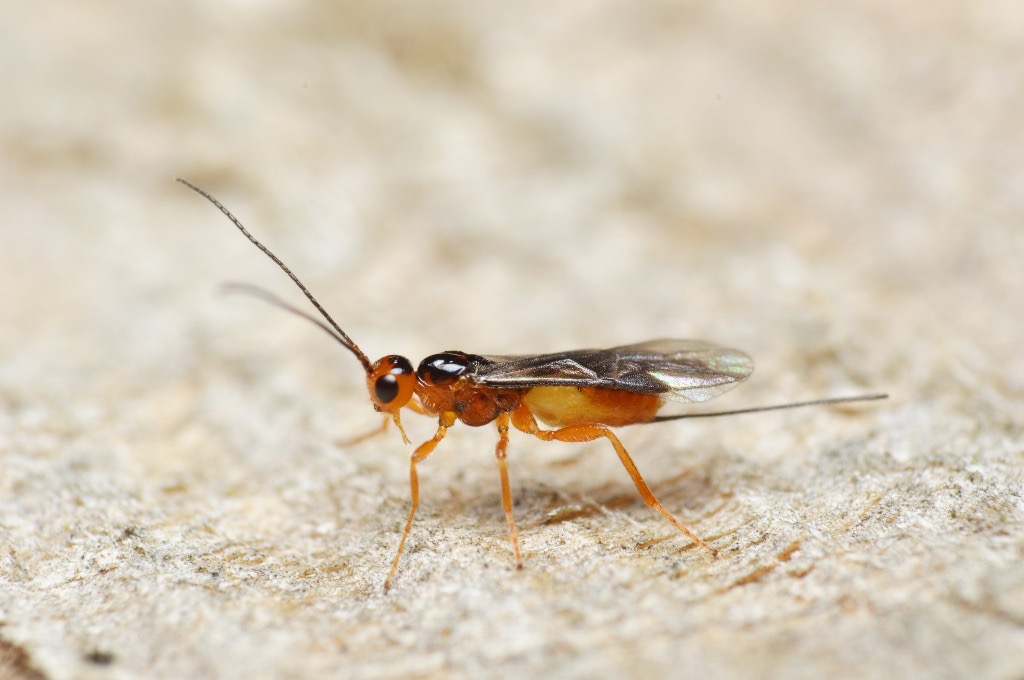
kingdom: Animalia
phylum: Arthropoda
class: Insecta
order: Hymenoptera
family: Braconidae
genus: Coeloides
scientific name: Coeloides melanotus
